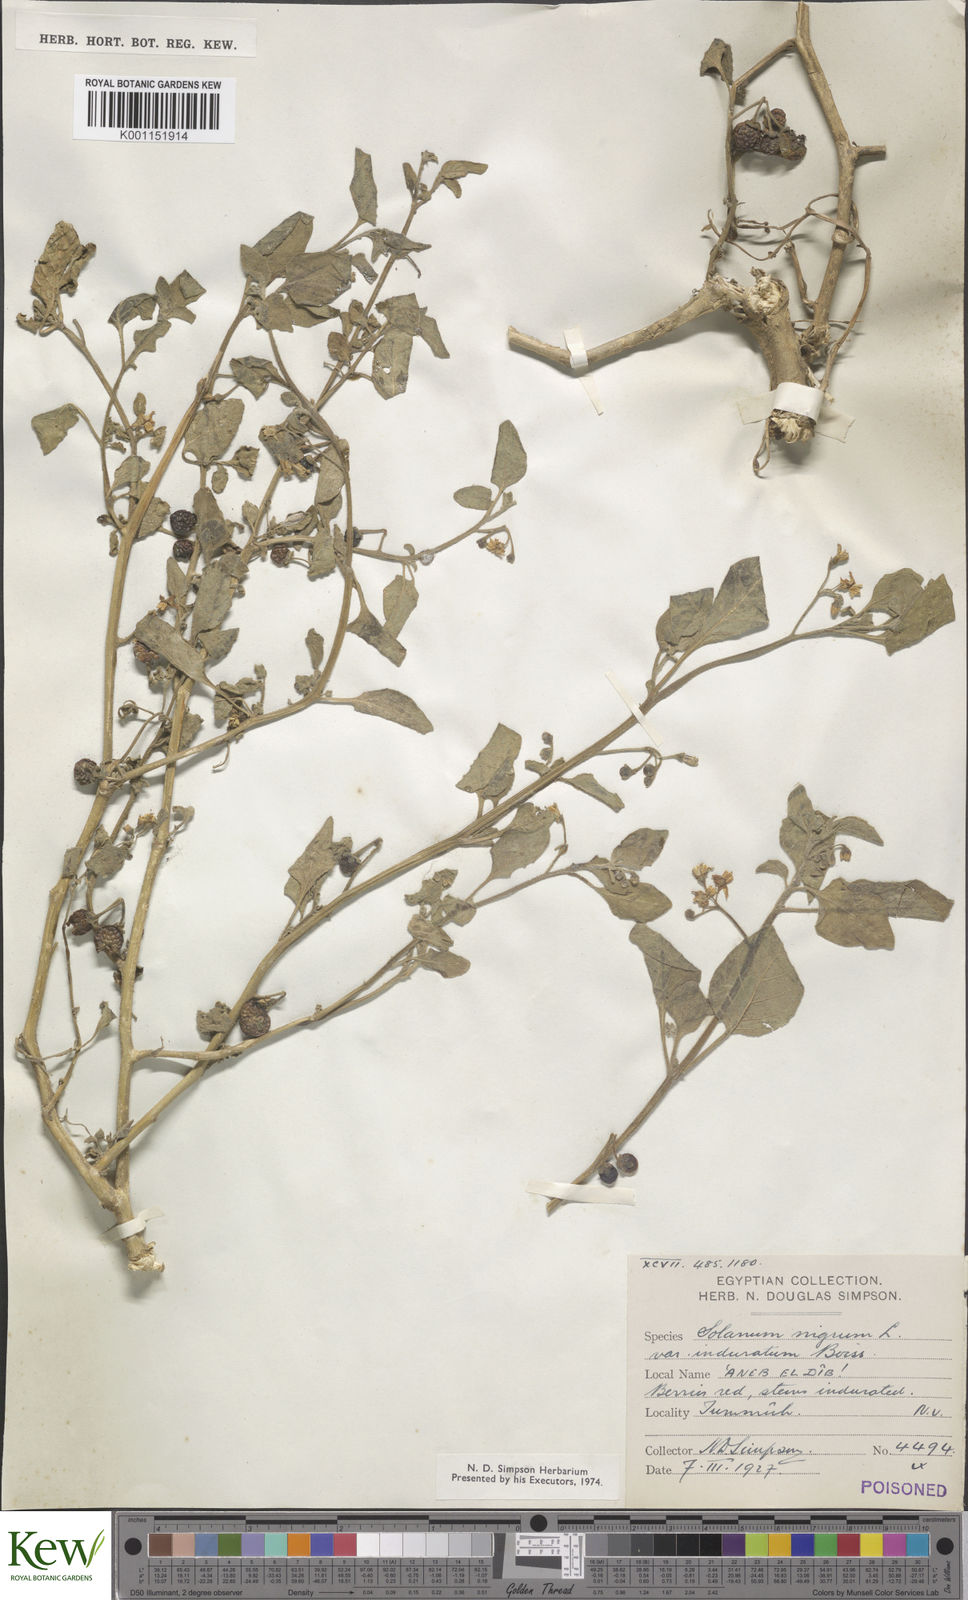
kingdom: Plantae
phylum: Tracheophyta
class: Magnoliopsida
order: Solanales
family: Solanaceae
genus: Solanum
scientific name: Solanum villosum
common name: Red nightshade
